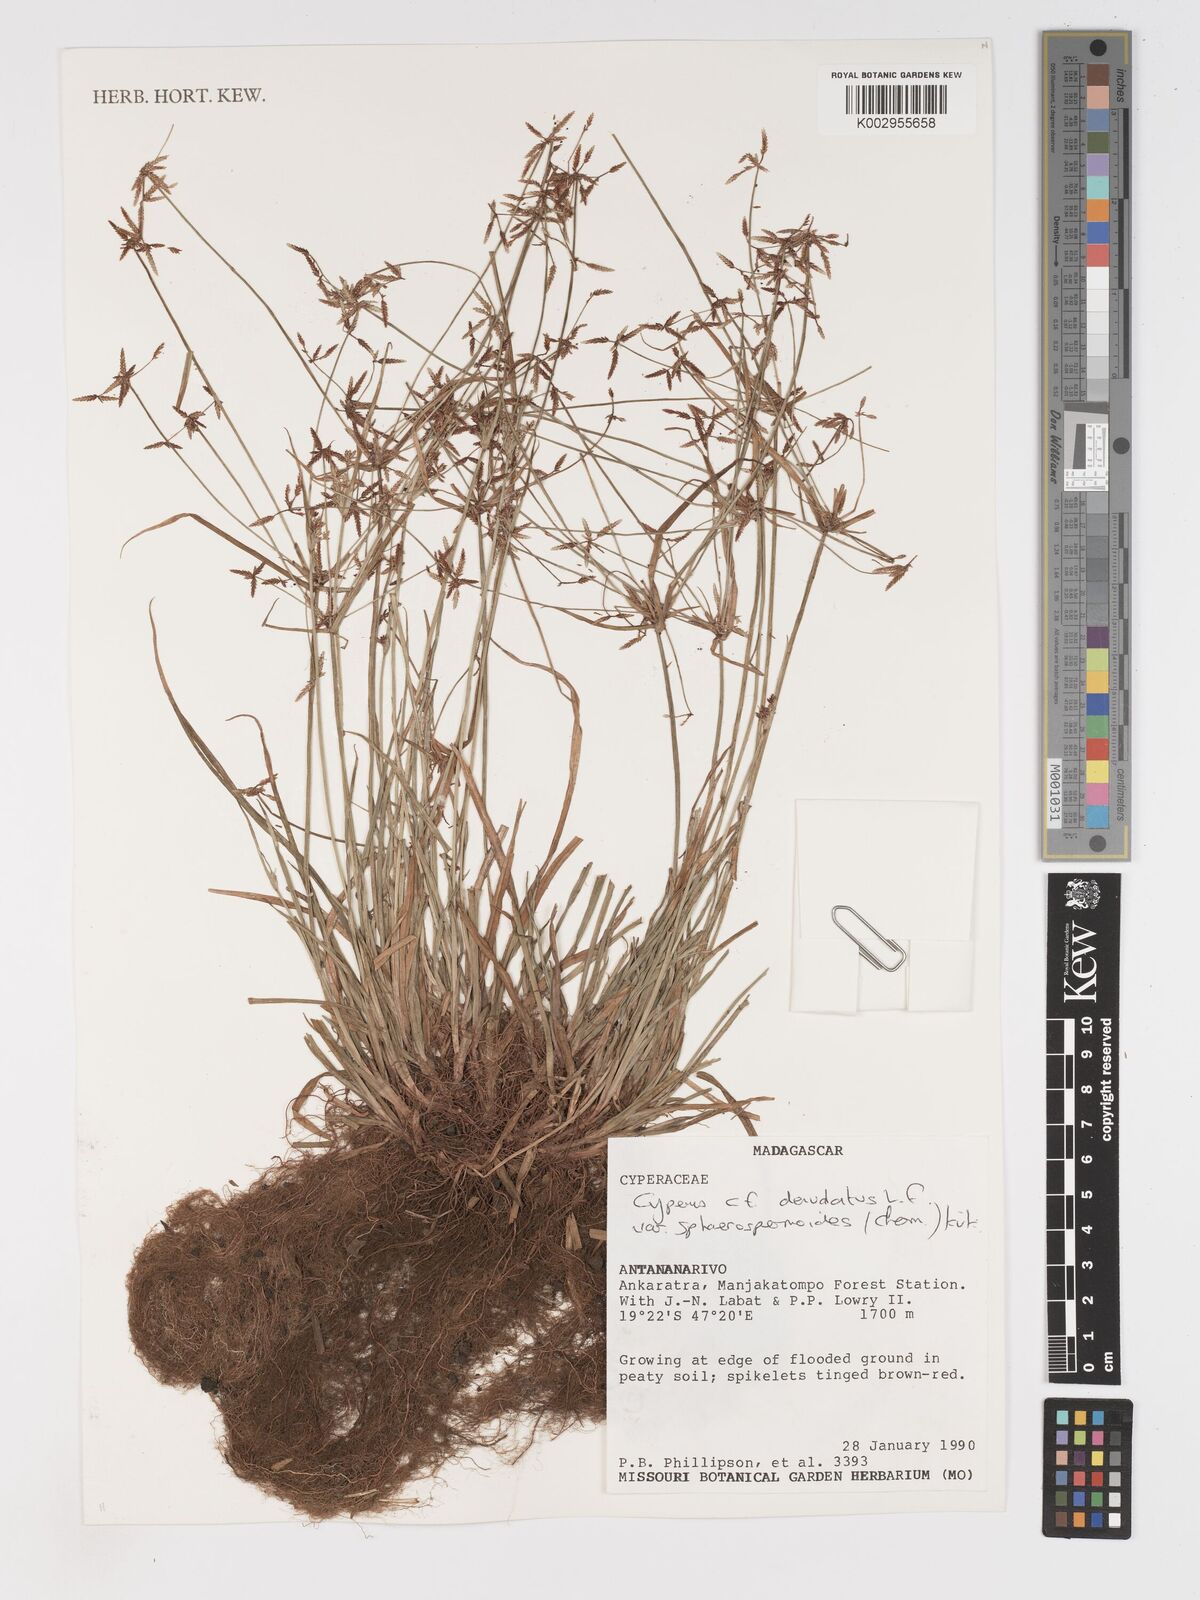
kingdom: Plantae
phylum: Tracheophyta
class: Liliopsida
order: Poales
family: Cyperaceae
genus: Cyperus
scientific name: Cyperus denudatus
